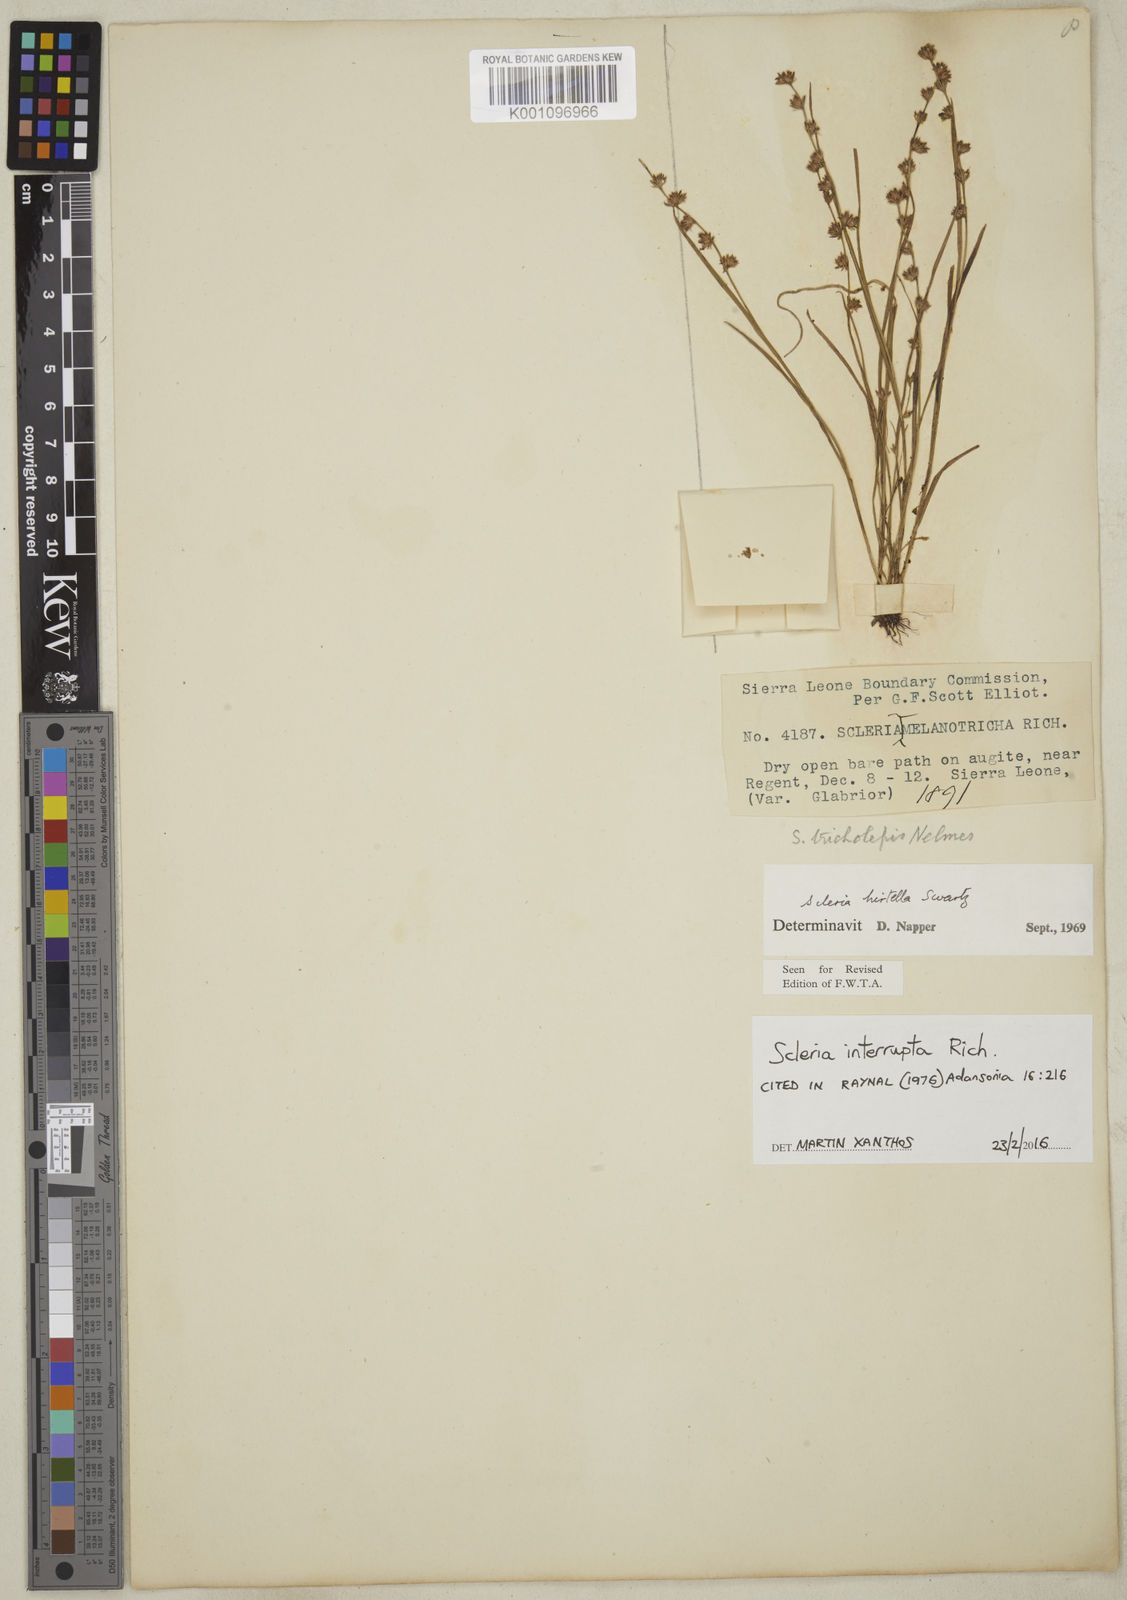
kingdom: Plantae
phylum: Tracheophyta
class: Liliopsida
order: Poales
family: Cyperaceae
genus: Scleria
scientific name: Scleria tricholepis
